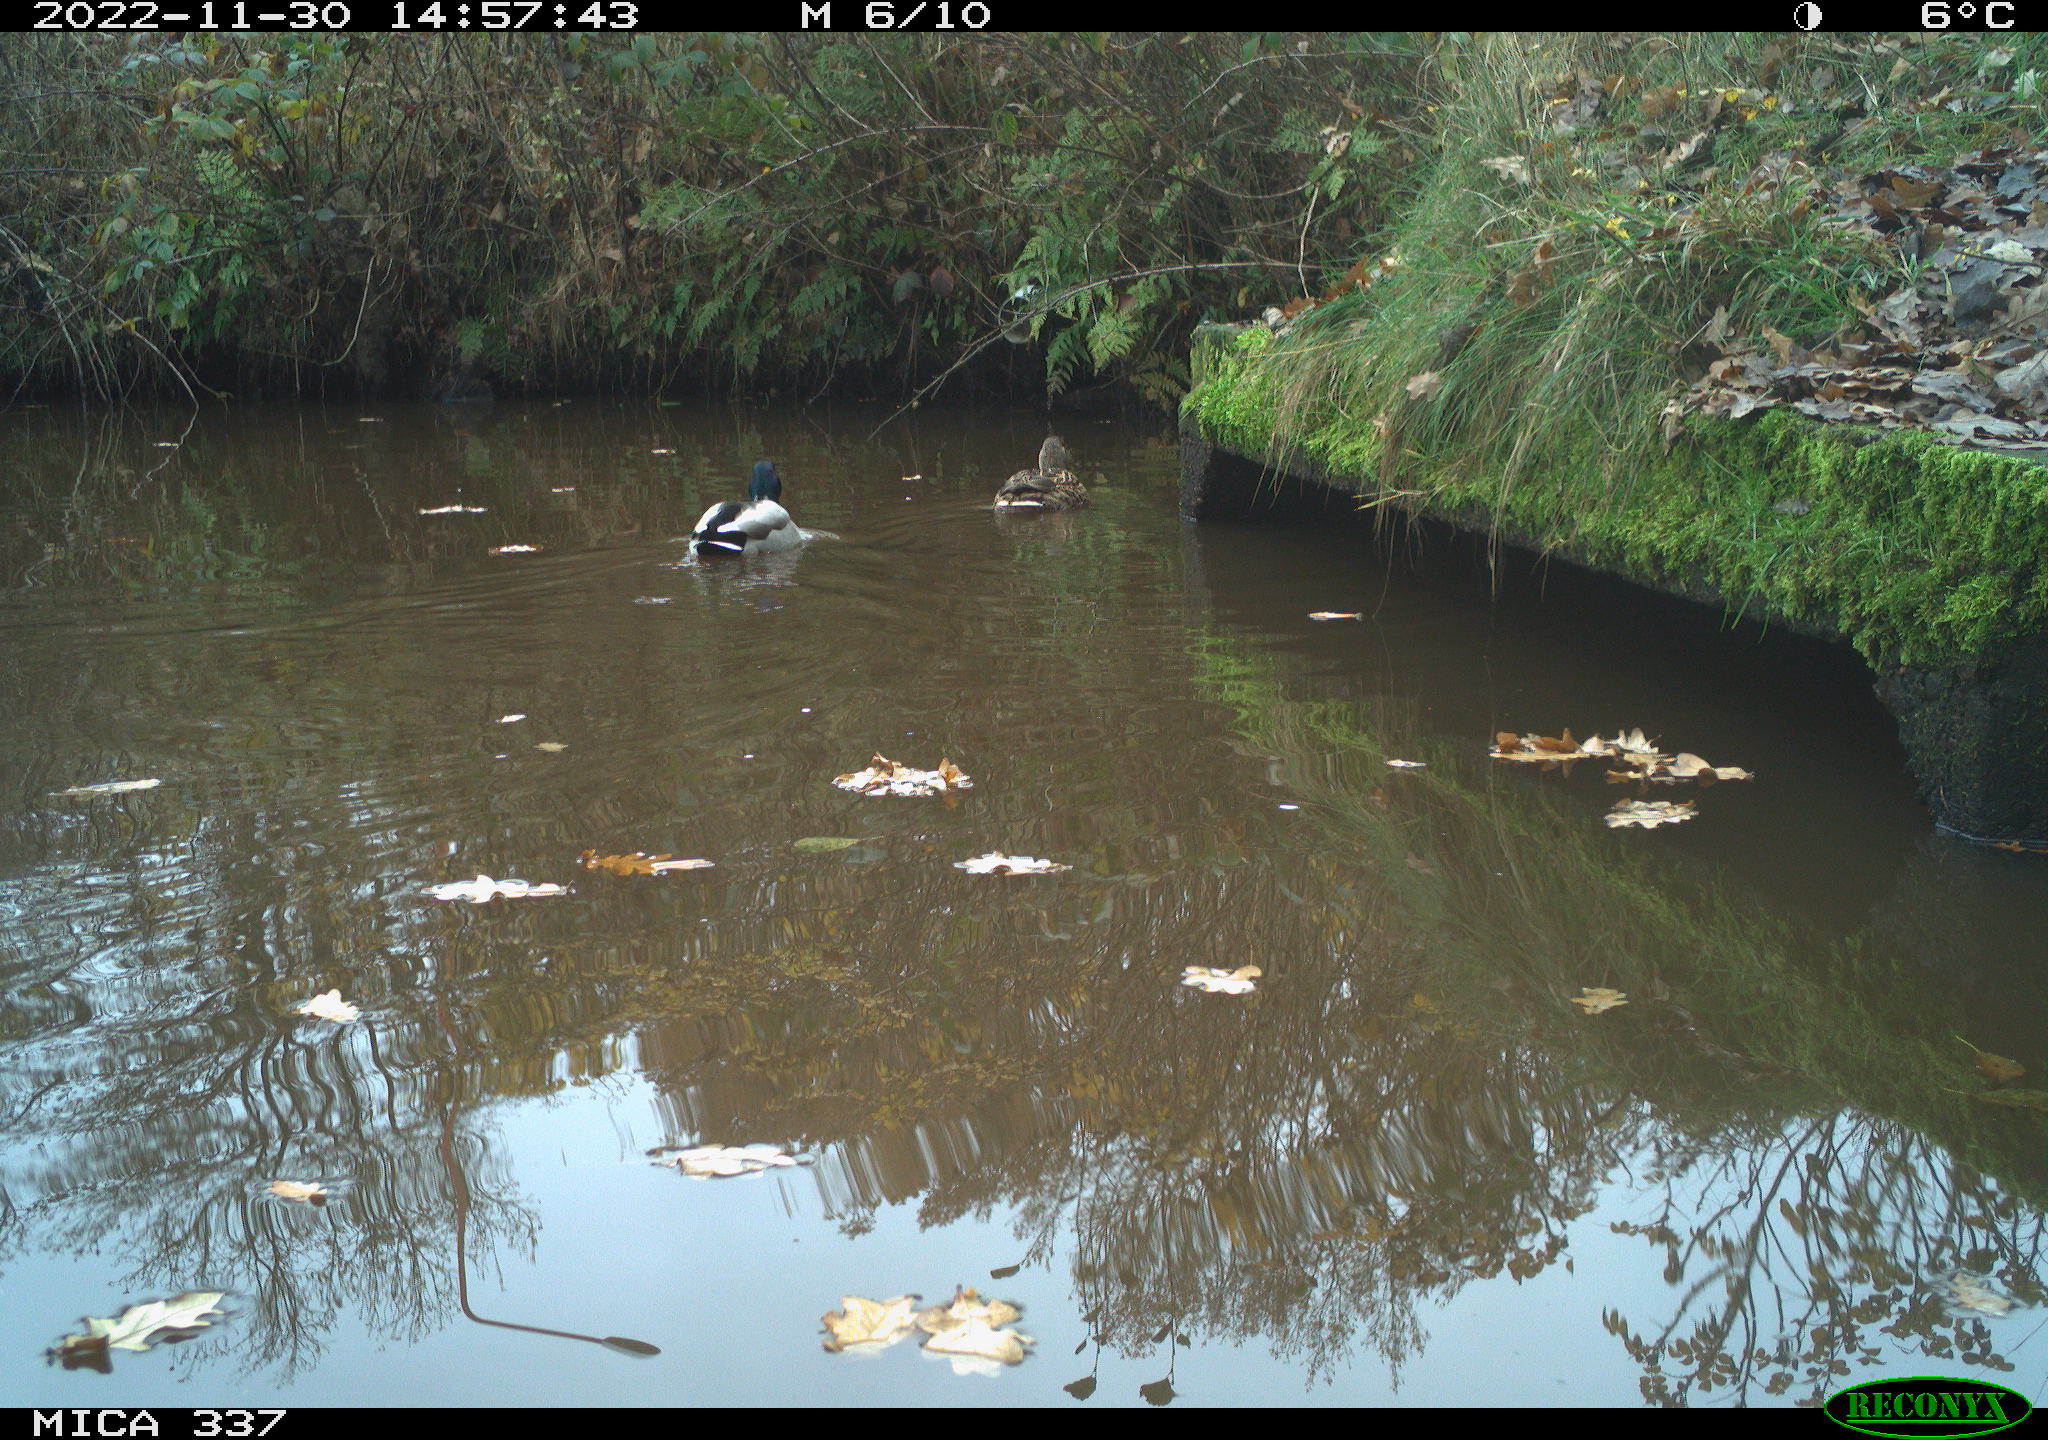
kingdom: Animalia
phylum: Chordata
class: Aves
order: Anseriformes
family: Anatidae
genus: Anas
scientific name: Anas
